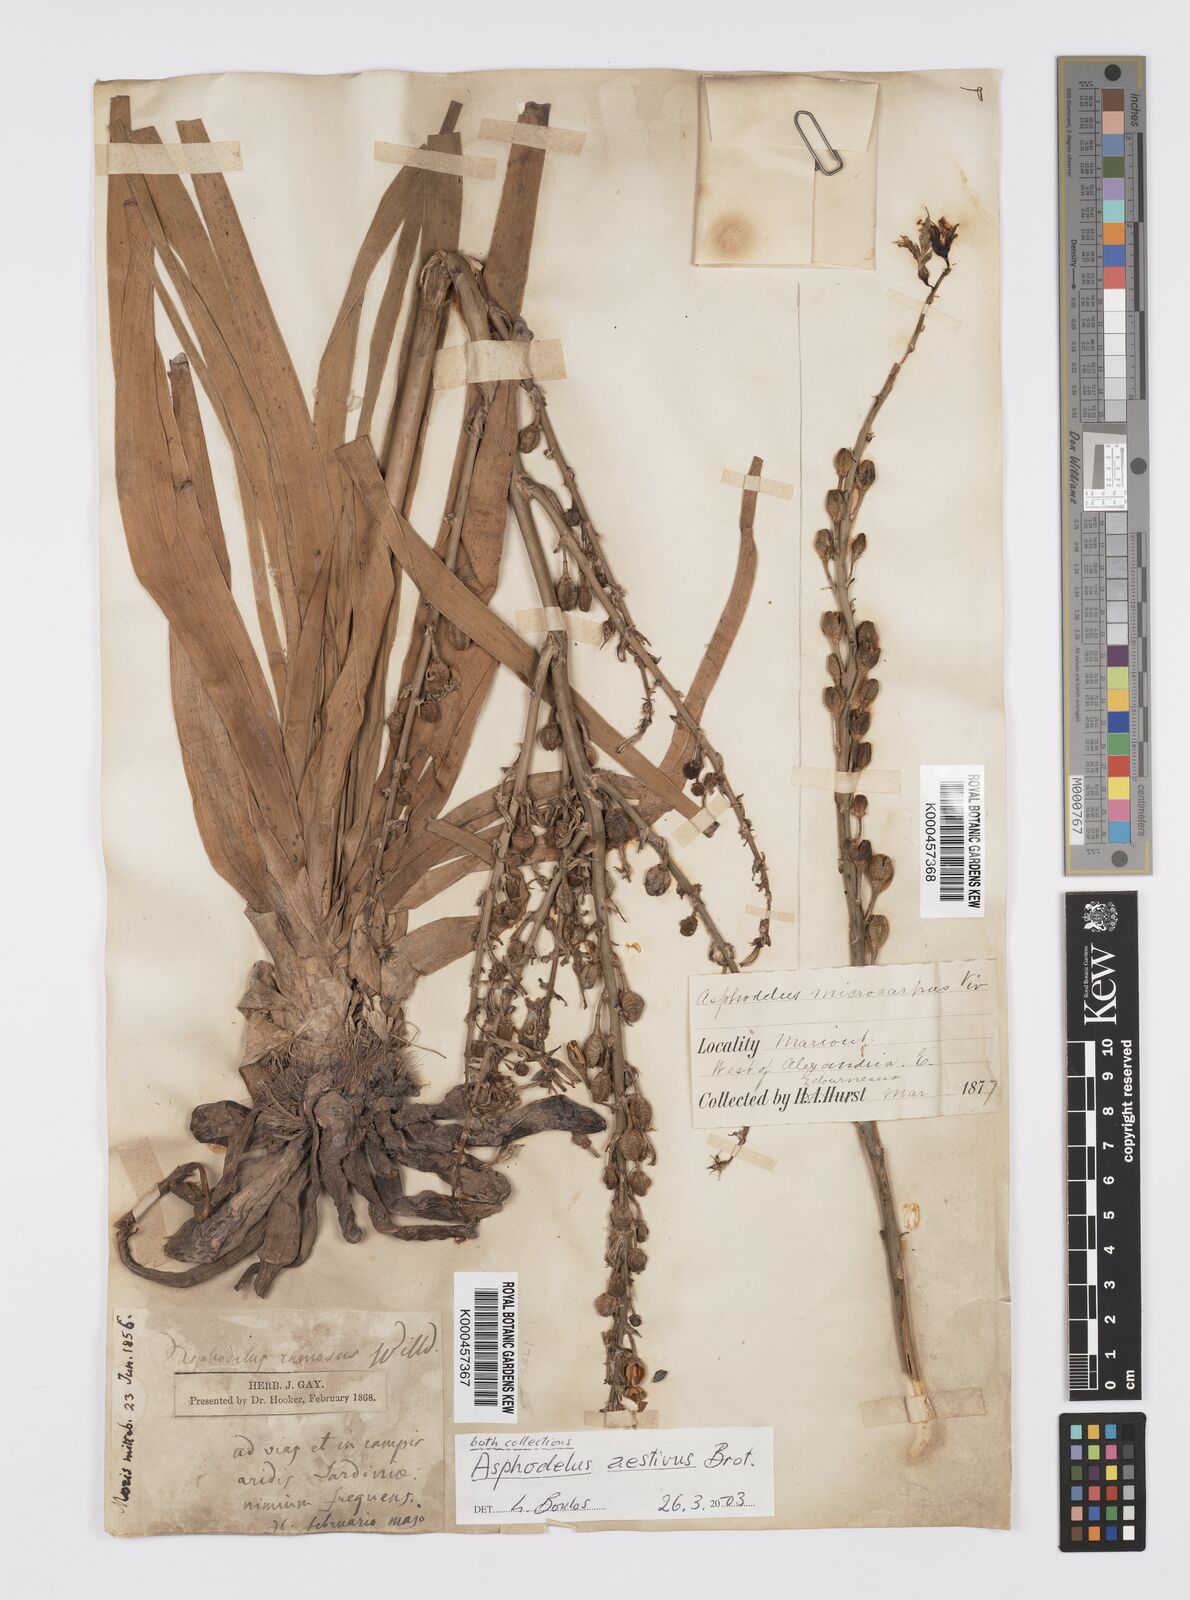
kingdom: Plantae
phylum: Tracheophyta
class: Liliopsida
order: Asparagales
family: Asphodelaceae
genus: Asphodelus
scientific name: Asphodelus aestivus
